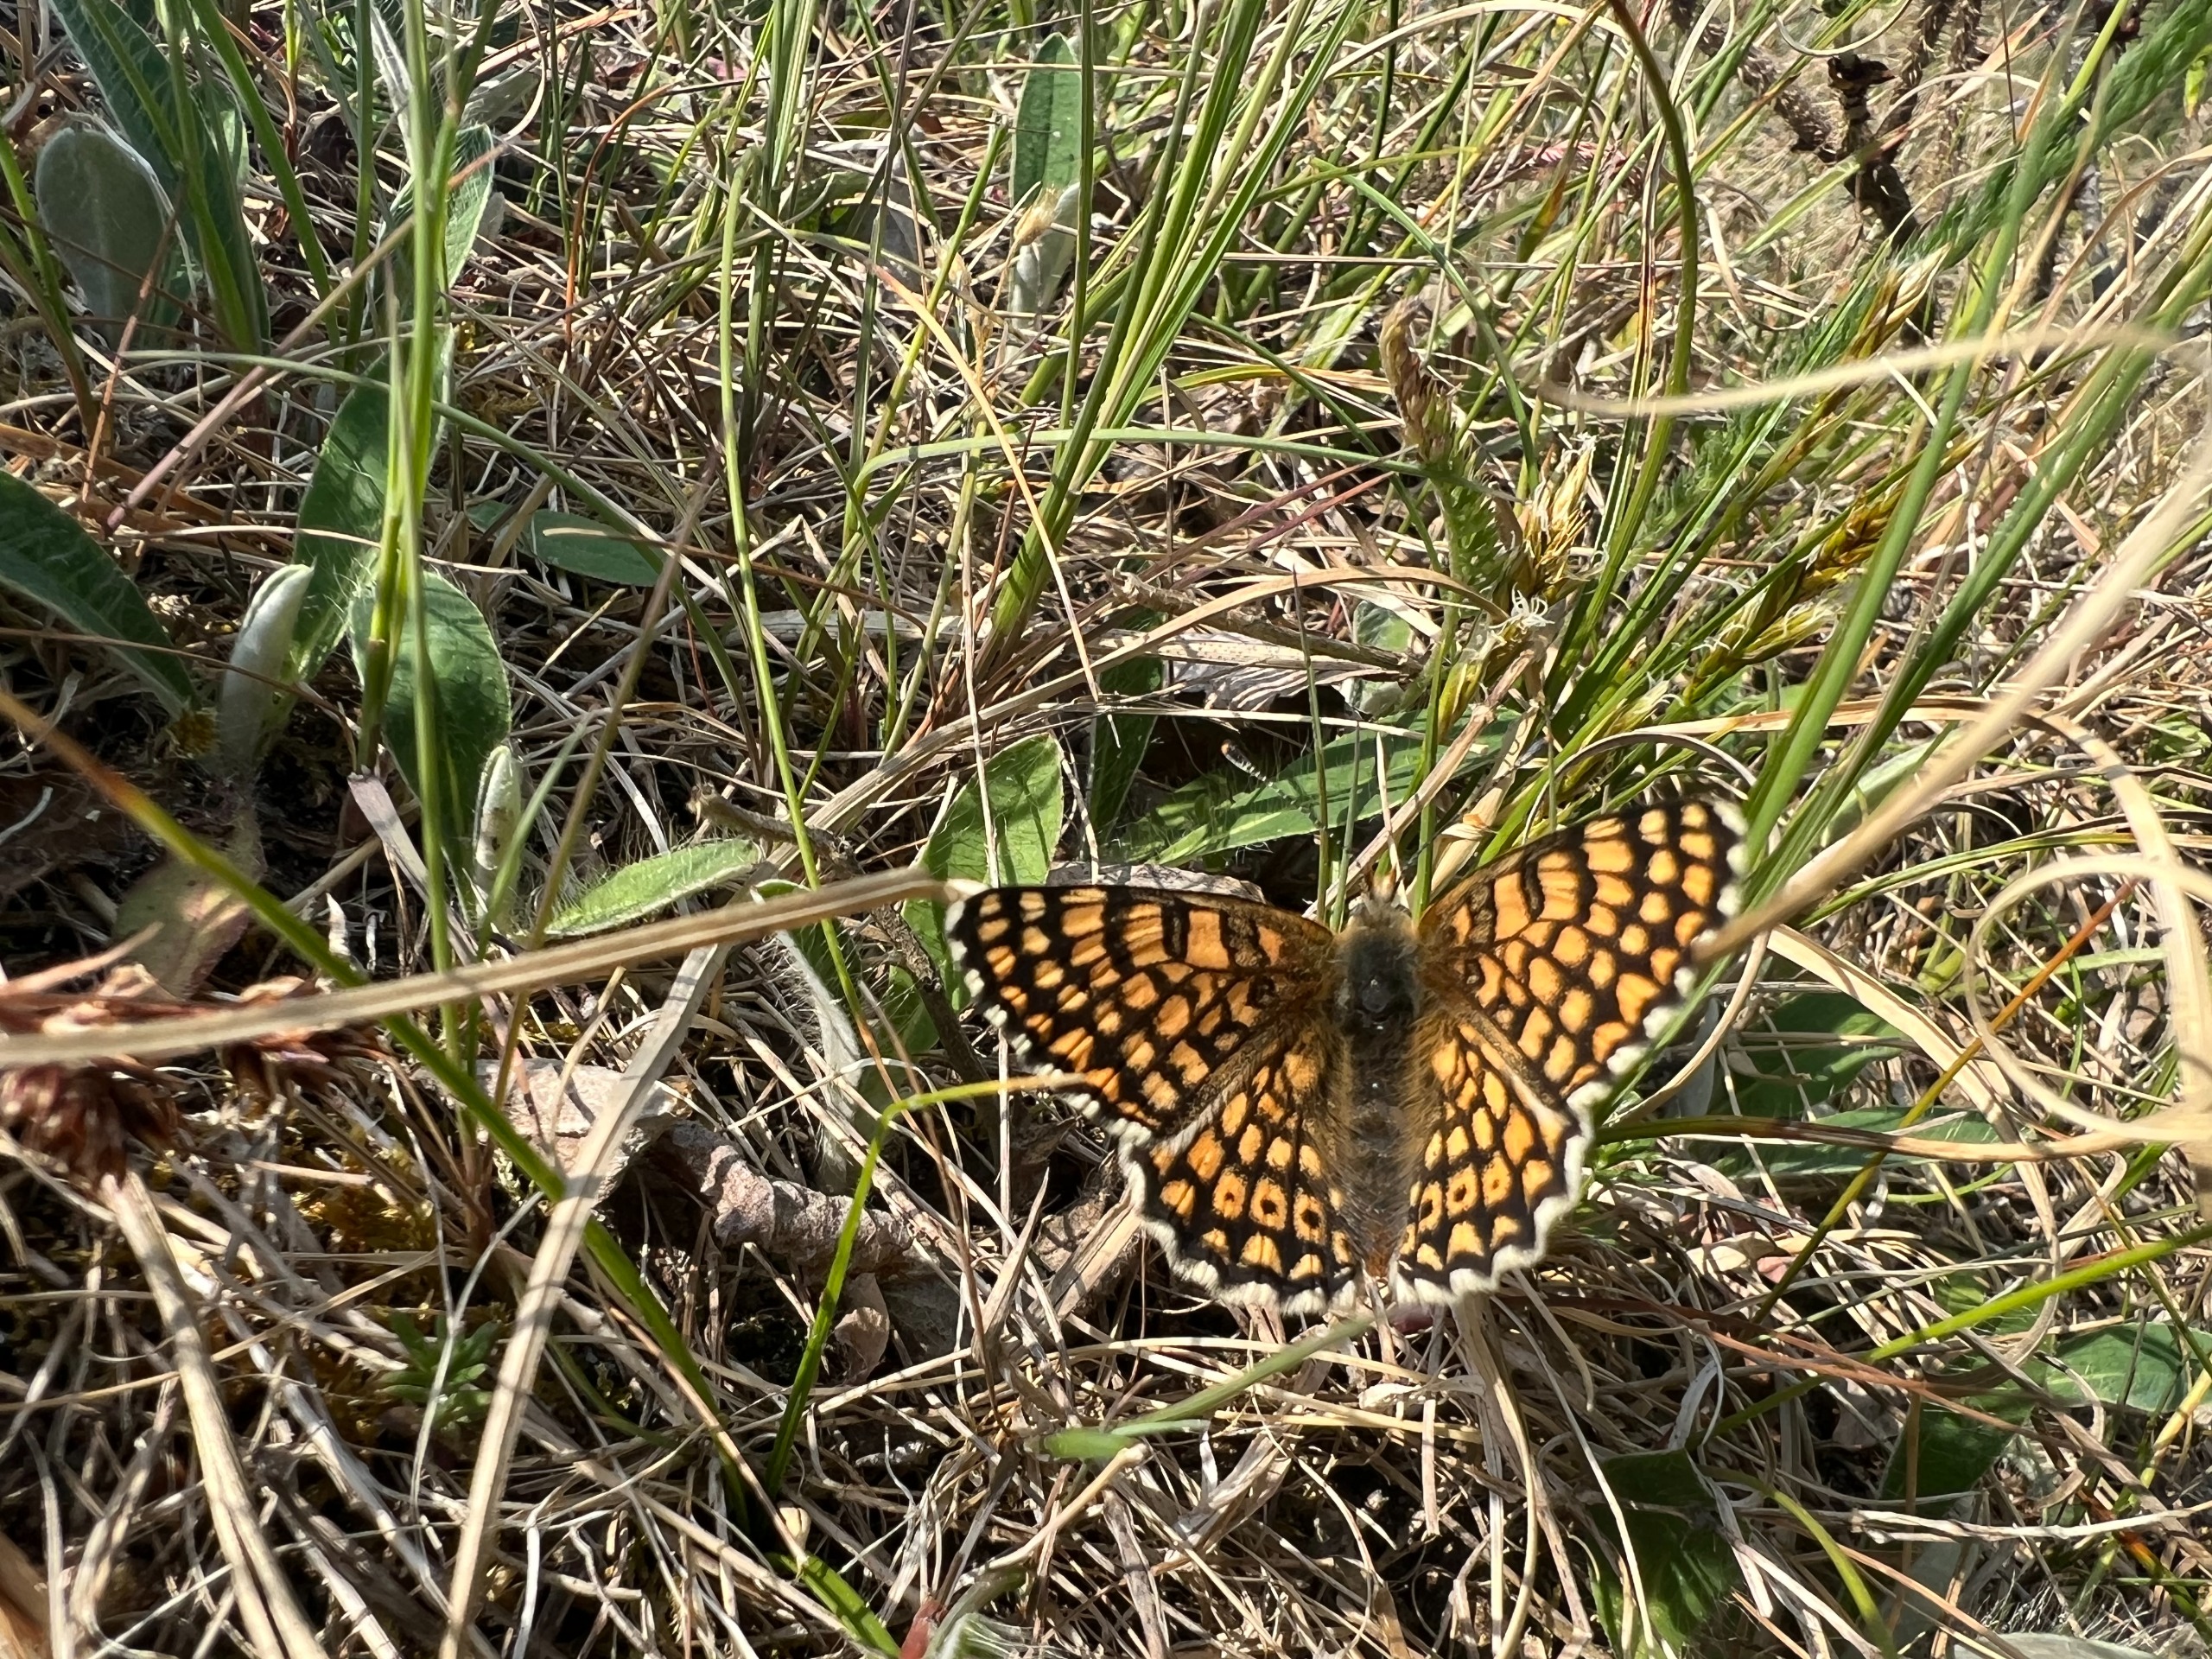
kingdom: Animalia
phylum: Arthropoda
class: Insecta
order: Lepidoptera
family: Nymphalidae
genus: Melitaea
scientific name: Melitaea cinxia
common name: Okkergul pletvinge
